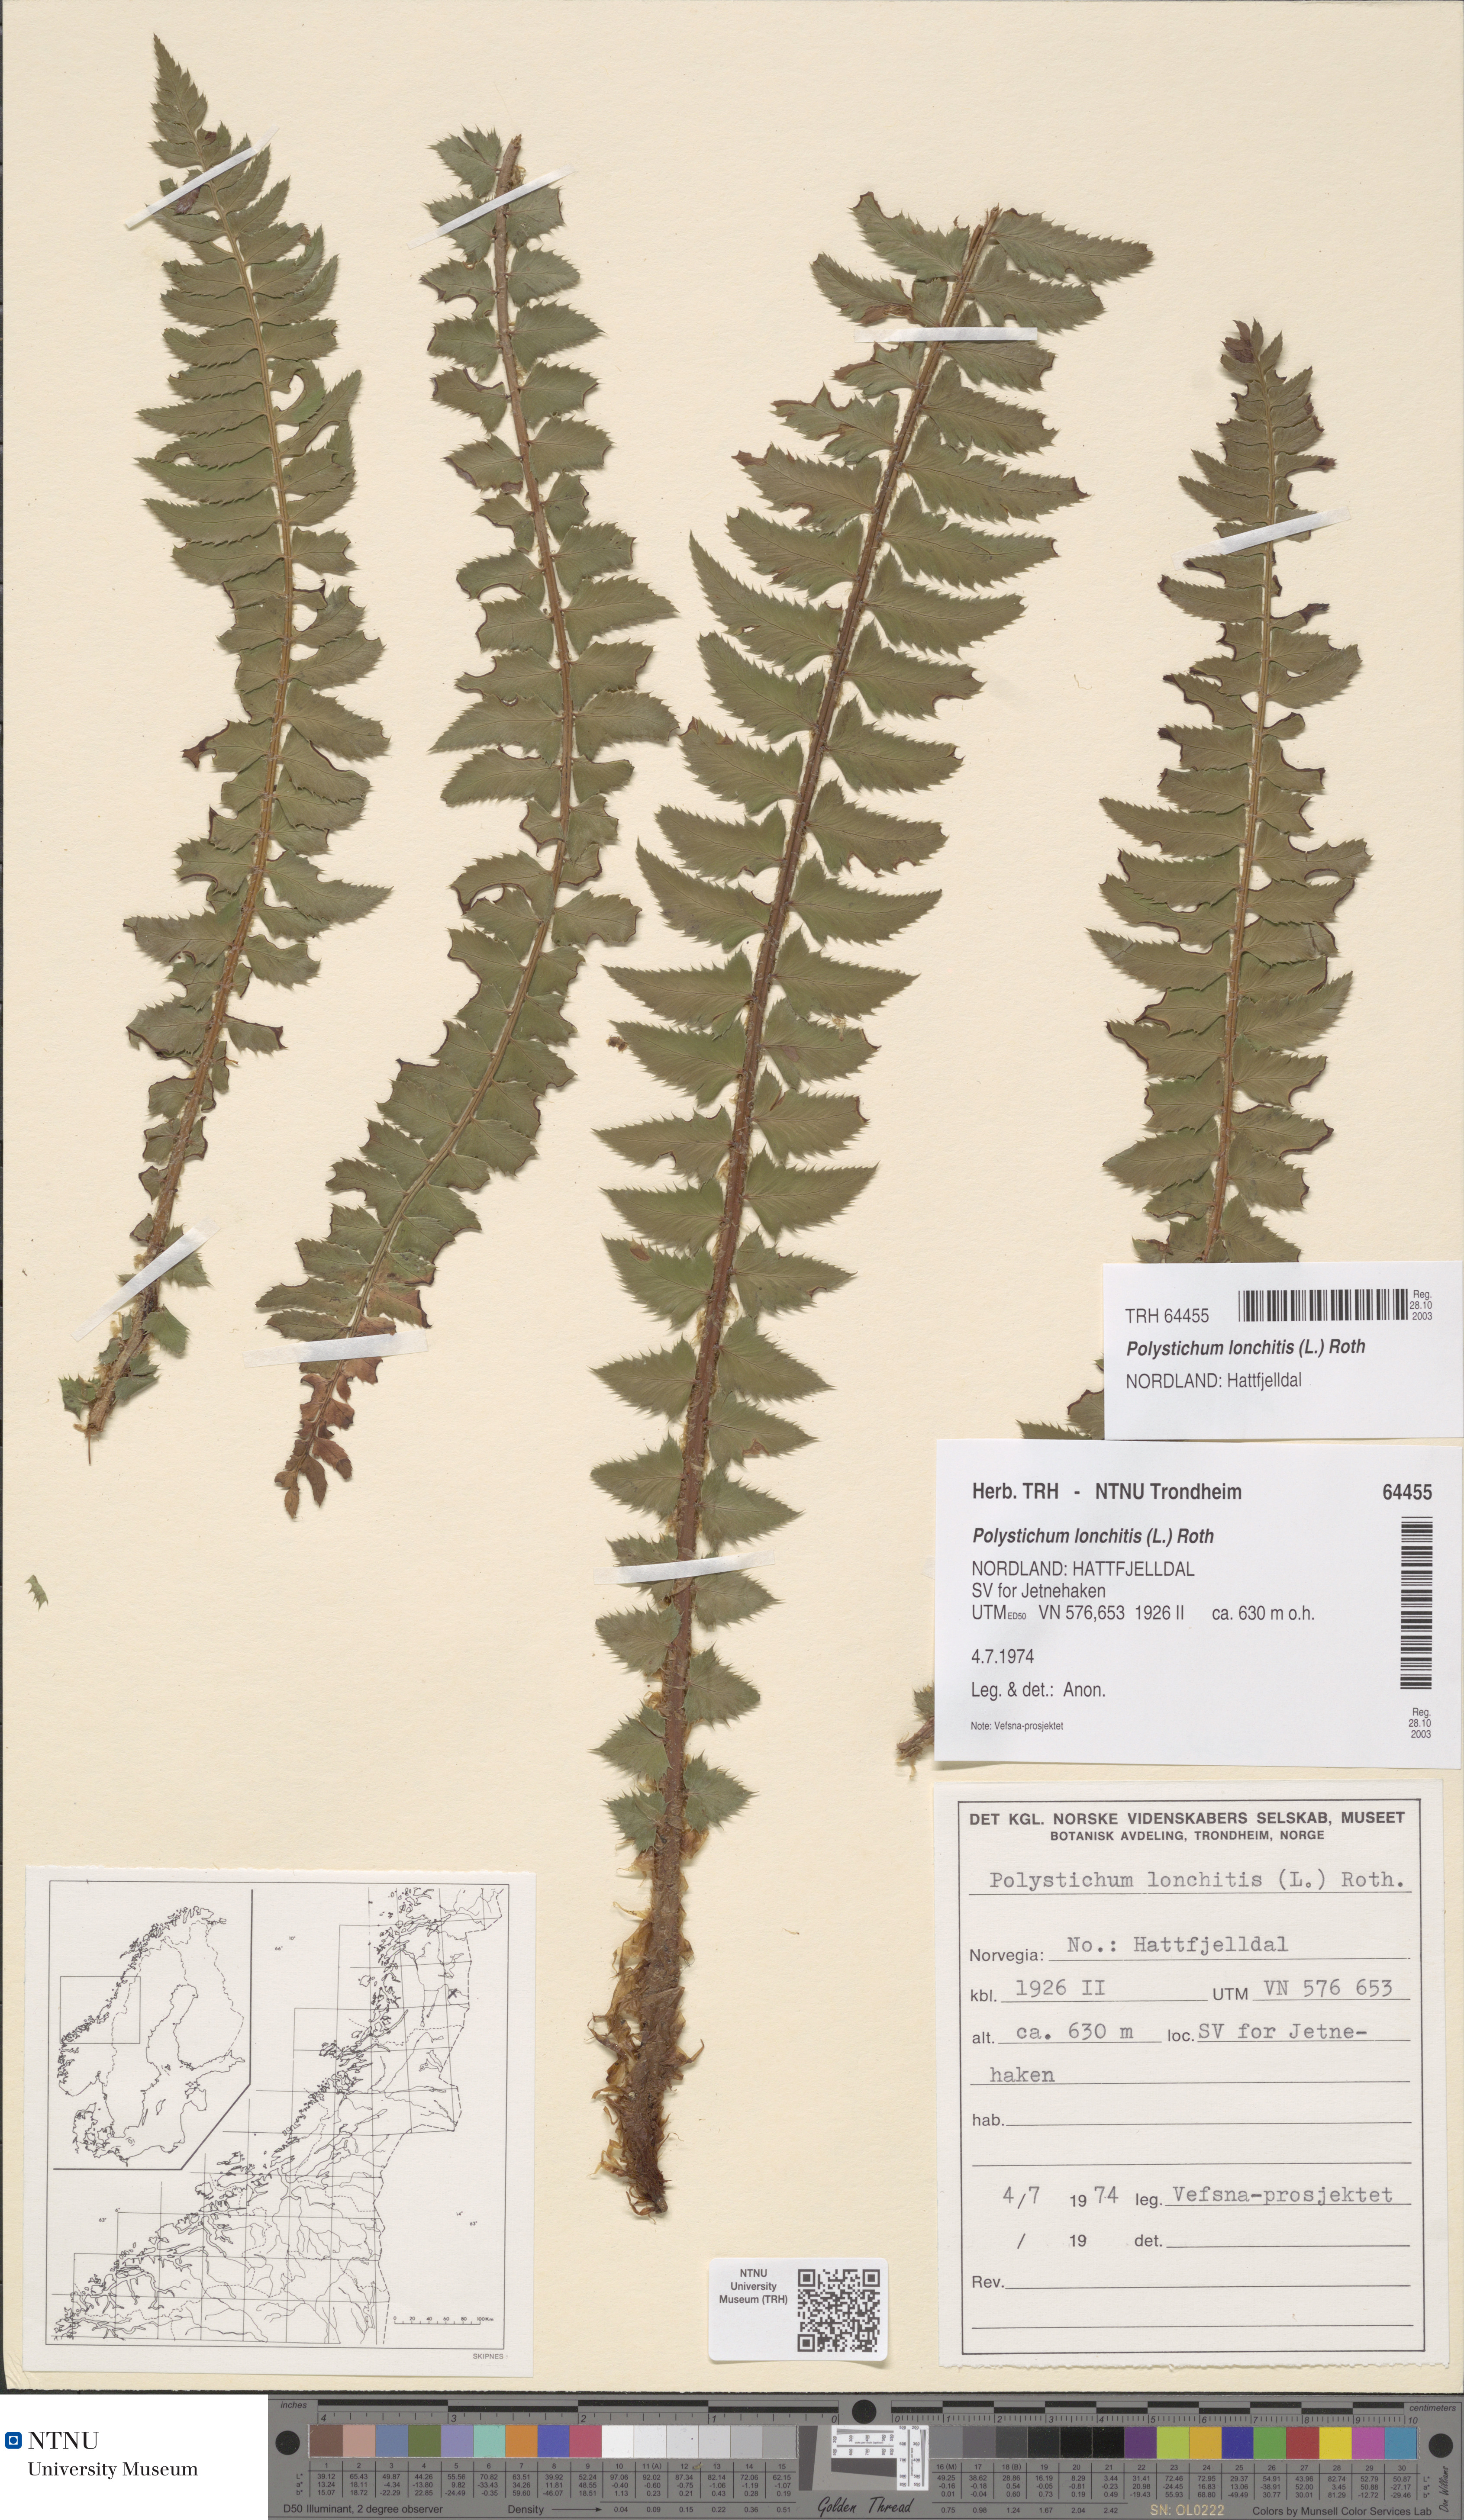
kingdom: Plantae
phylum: Tracheophyta
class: Polypodiopsida
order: Polypodiales
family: Dryopteridaceae
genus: Polystichum
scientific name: Polystichum lonchitis
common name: Holly fern
